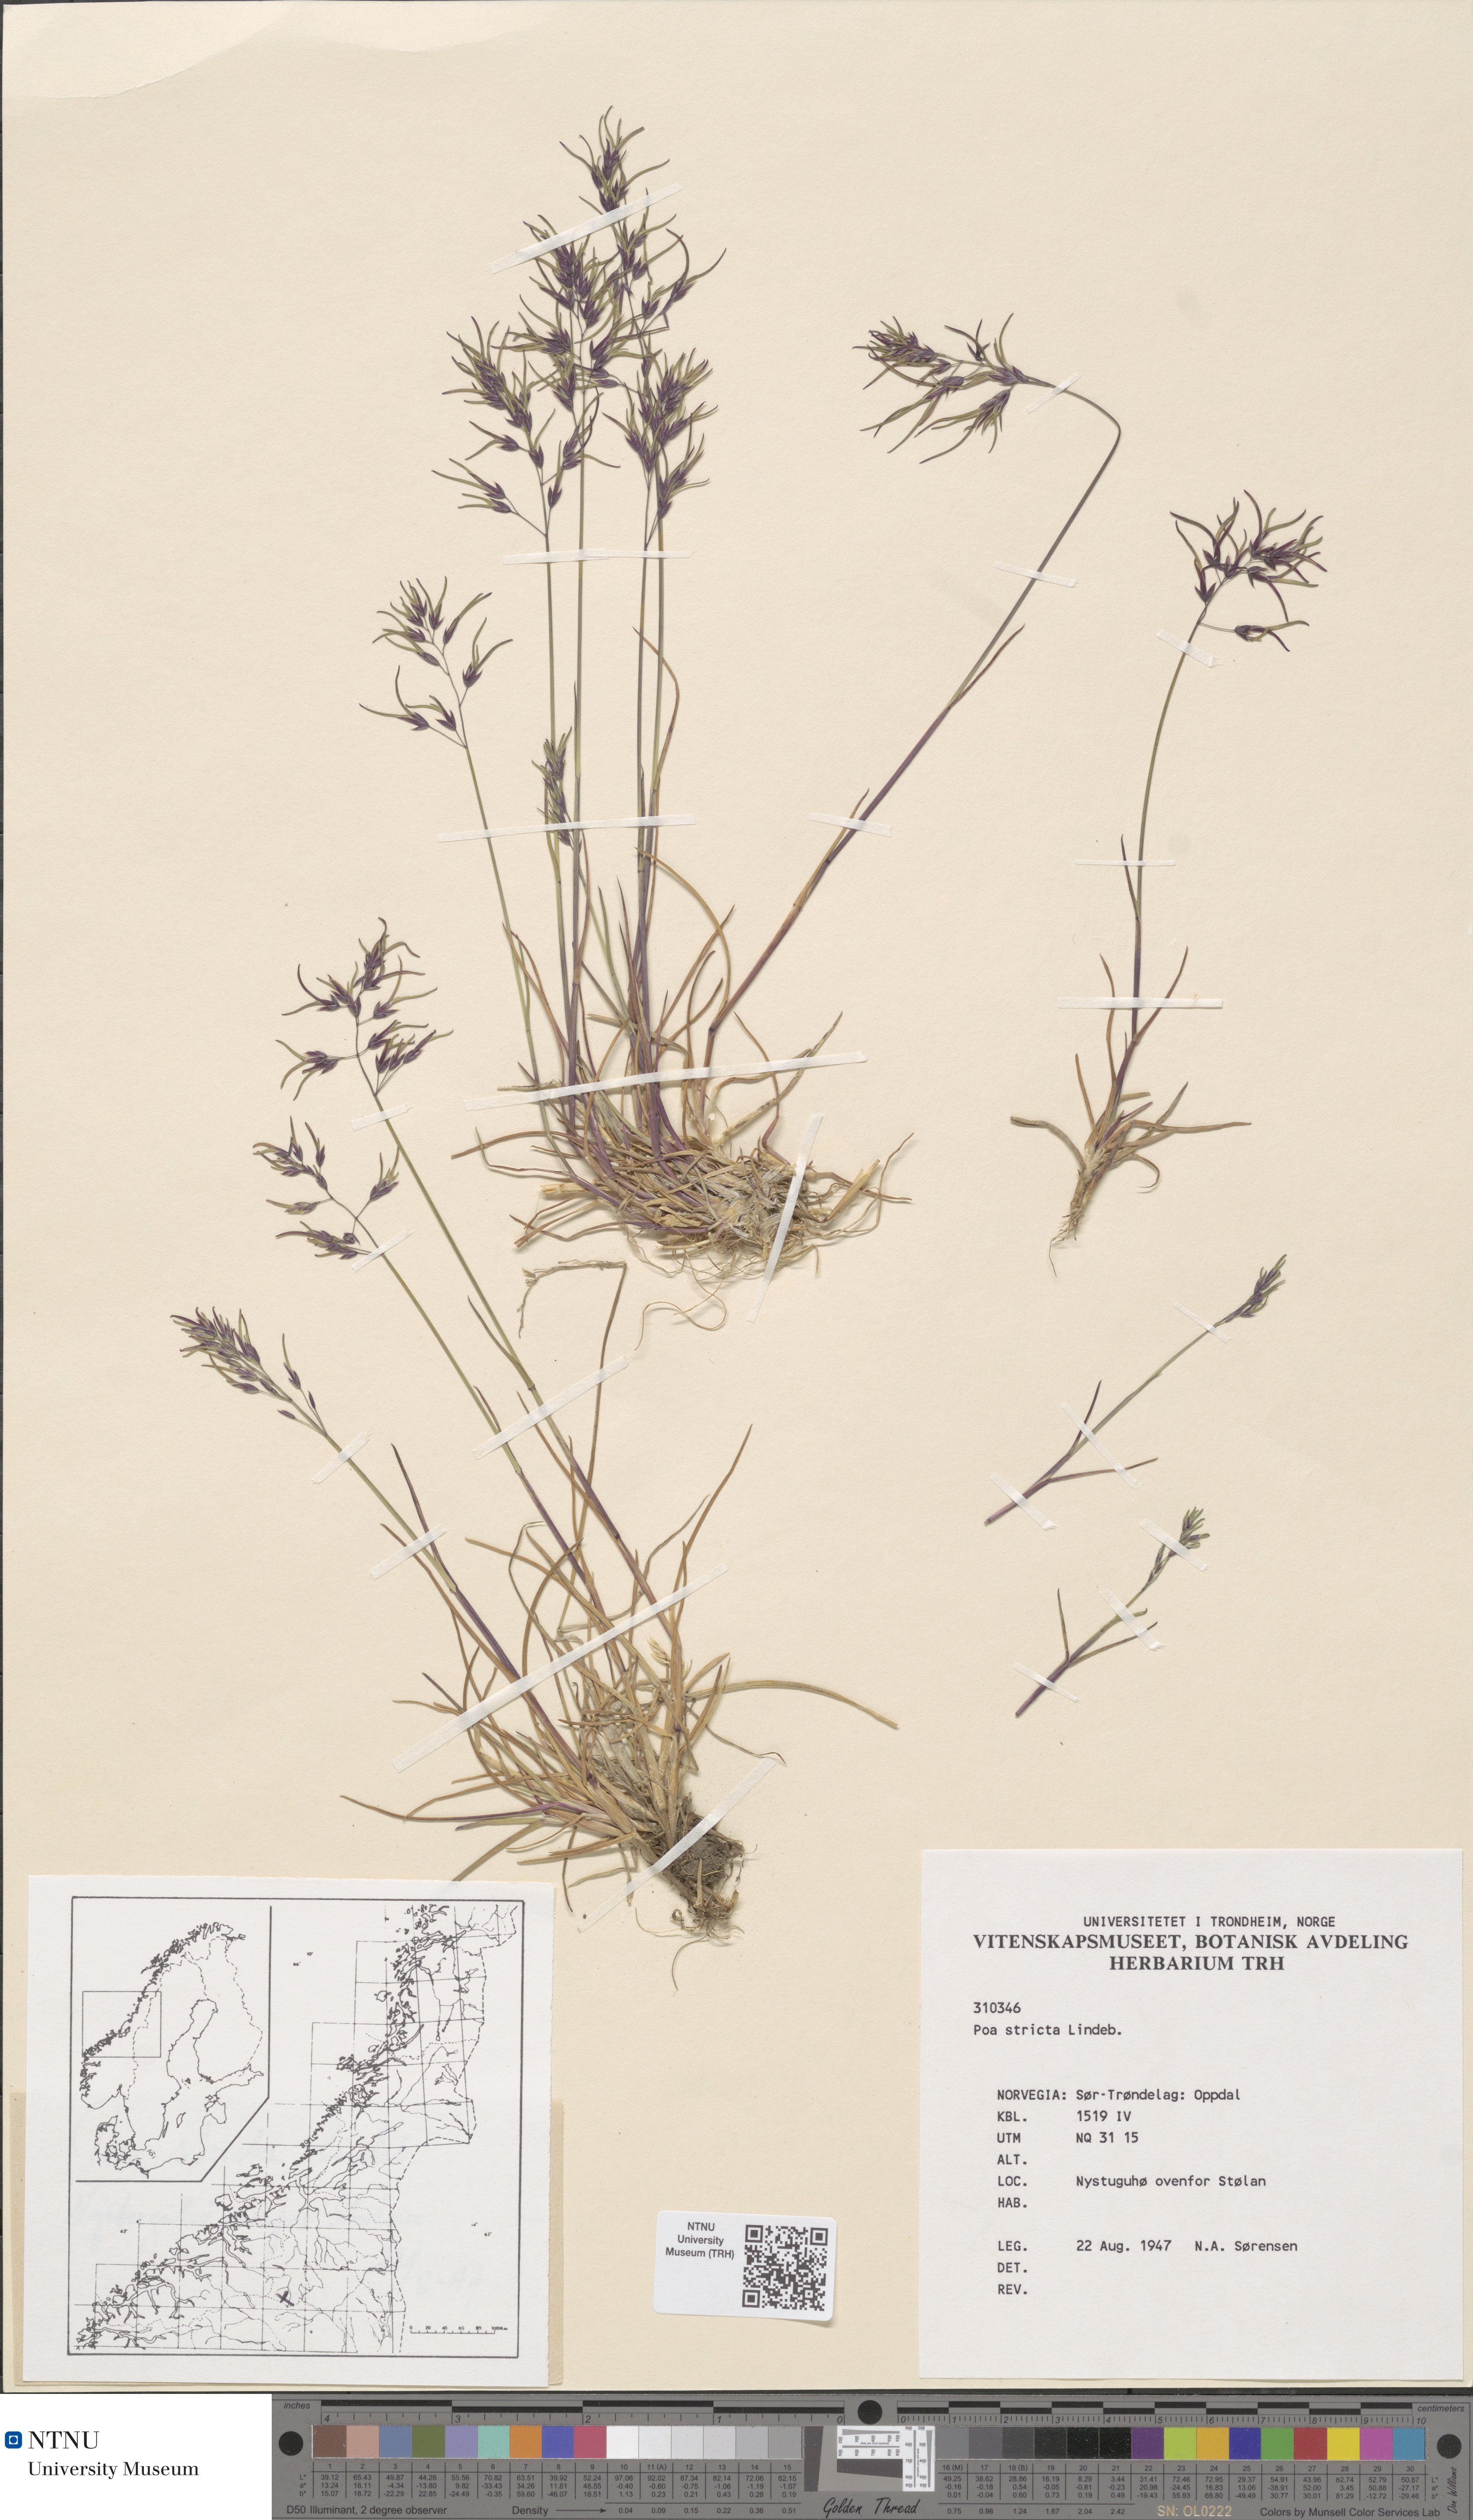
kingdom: Plantae
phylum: Tracheophyta
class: Liliopsida
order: Poales
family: Poaceae
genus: Poa
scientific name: Poa lindebergii
